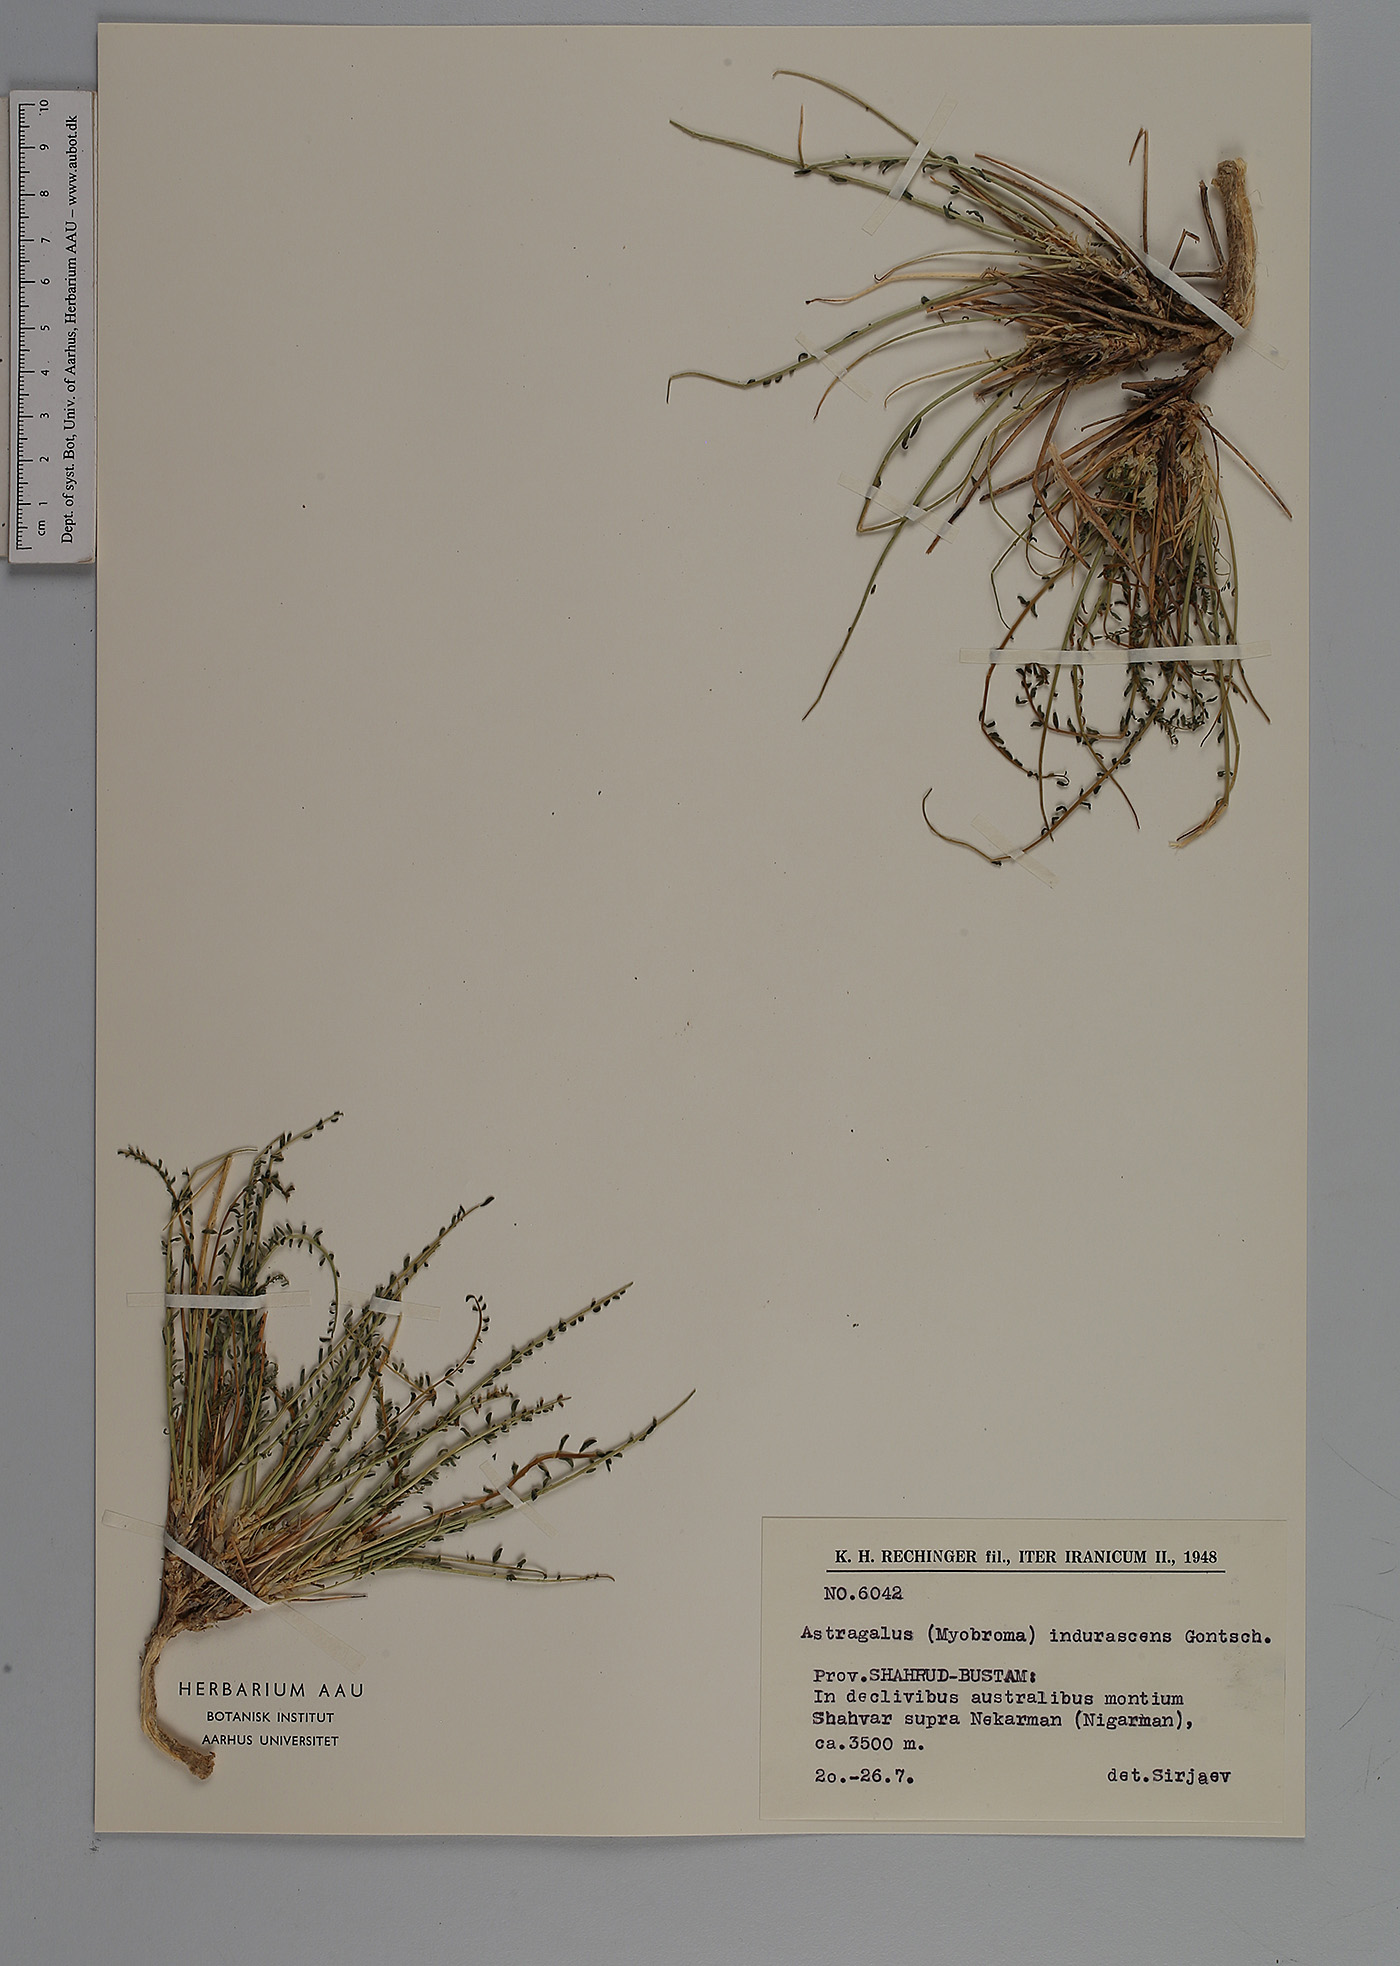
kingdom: Plantae
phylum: Tracheophyta
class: Magnoliopsida
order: Fabales
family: Fabaceae
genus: Astragalus
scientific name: Astragalus indurescens
